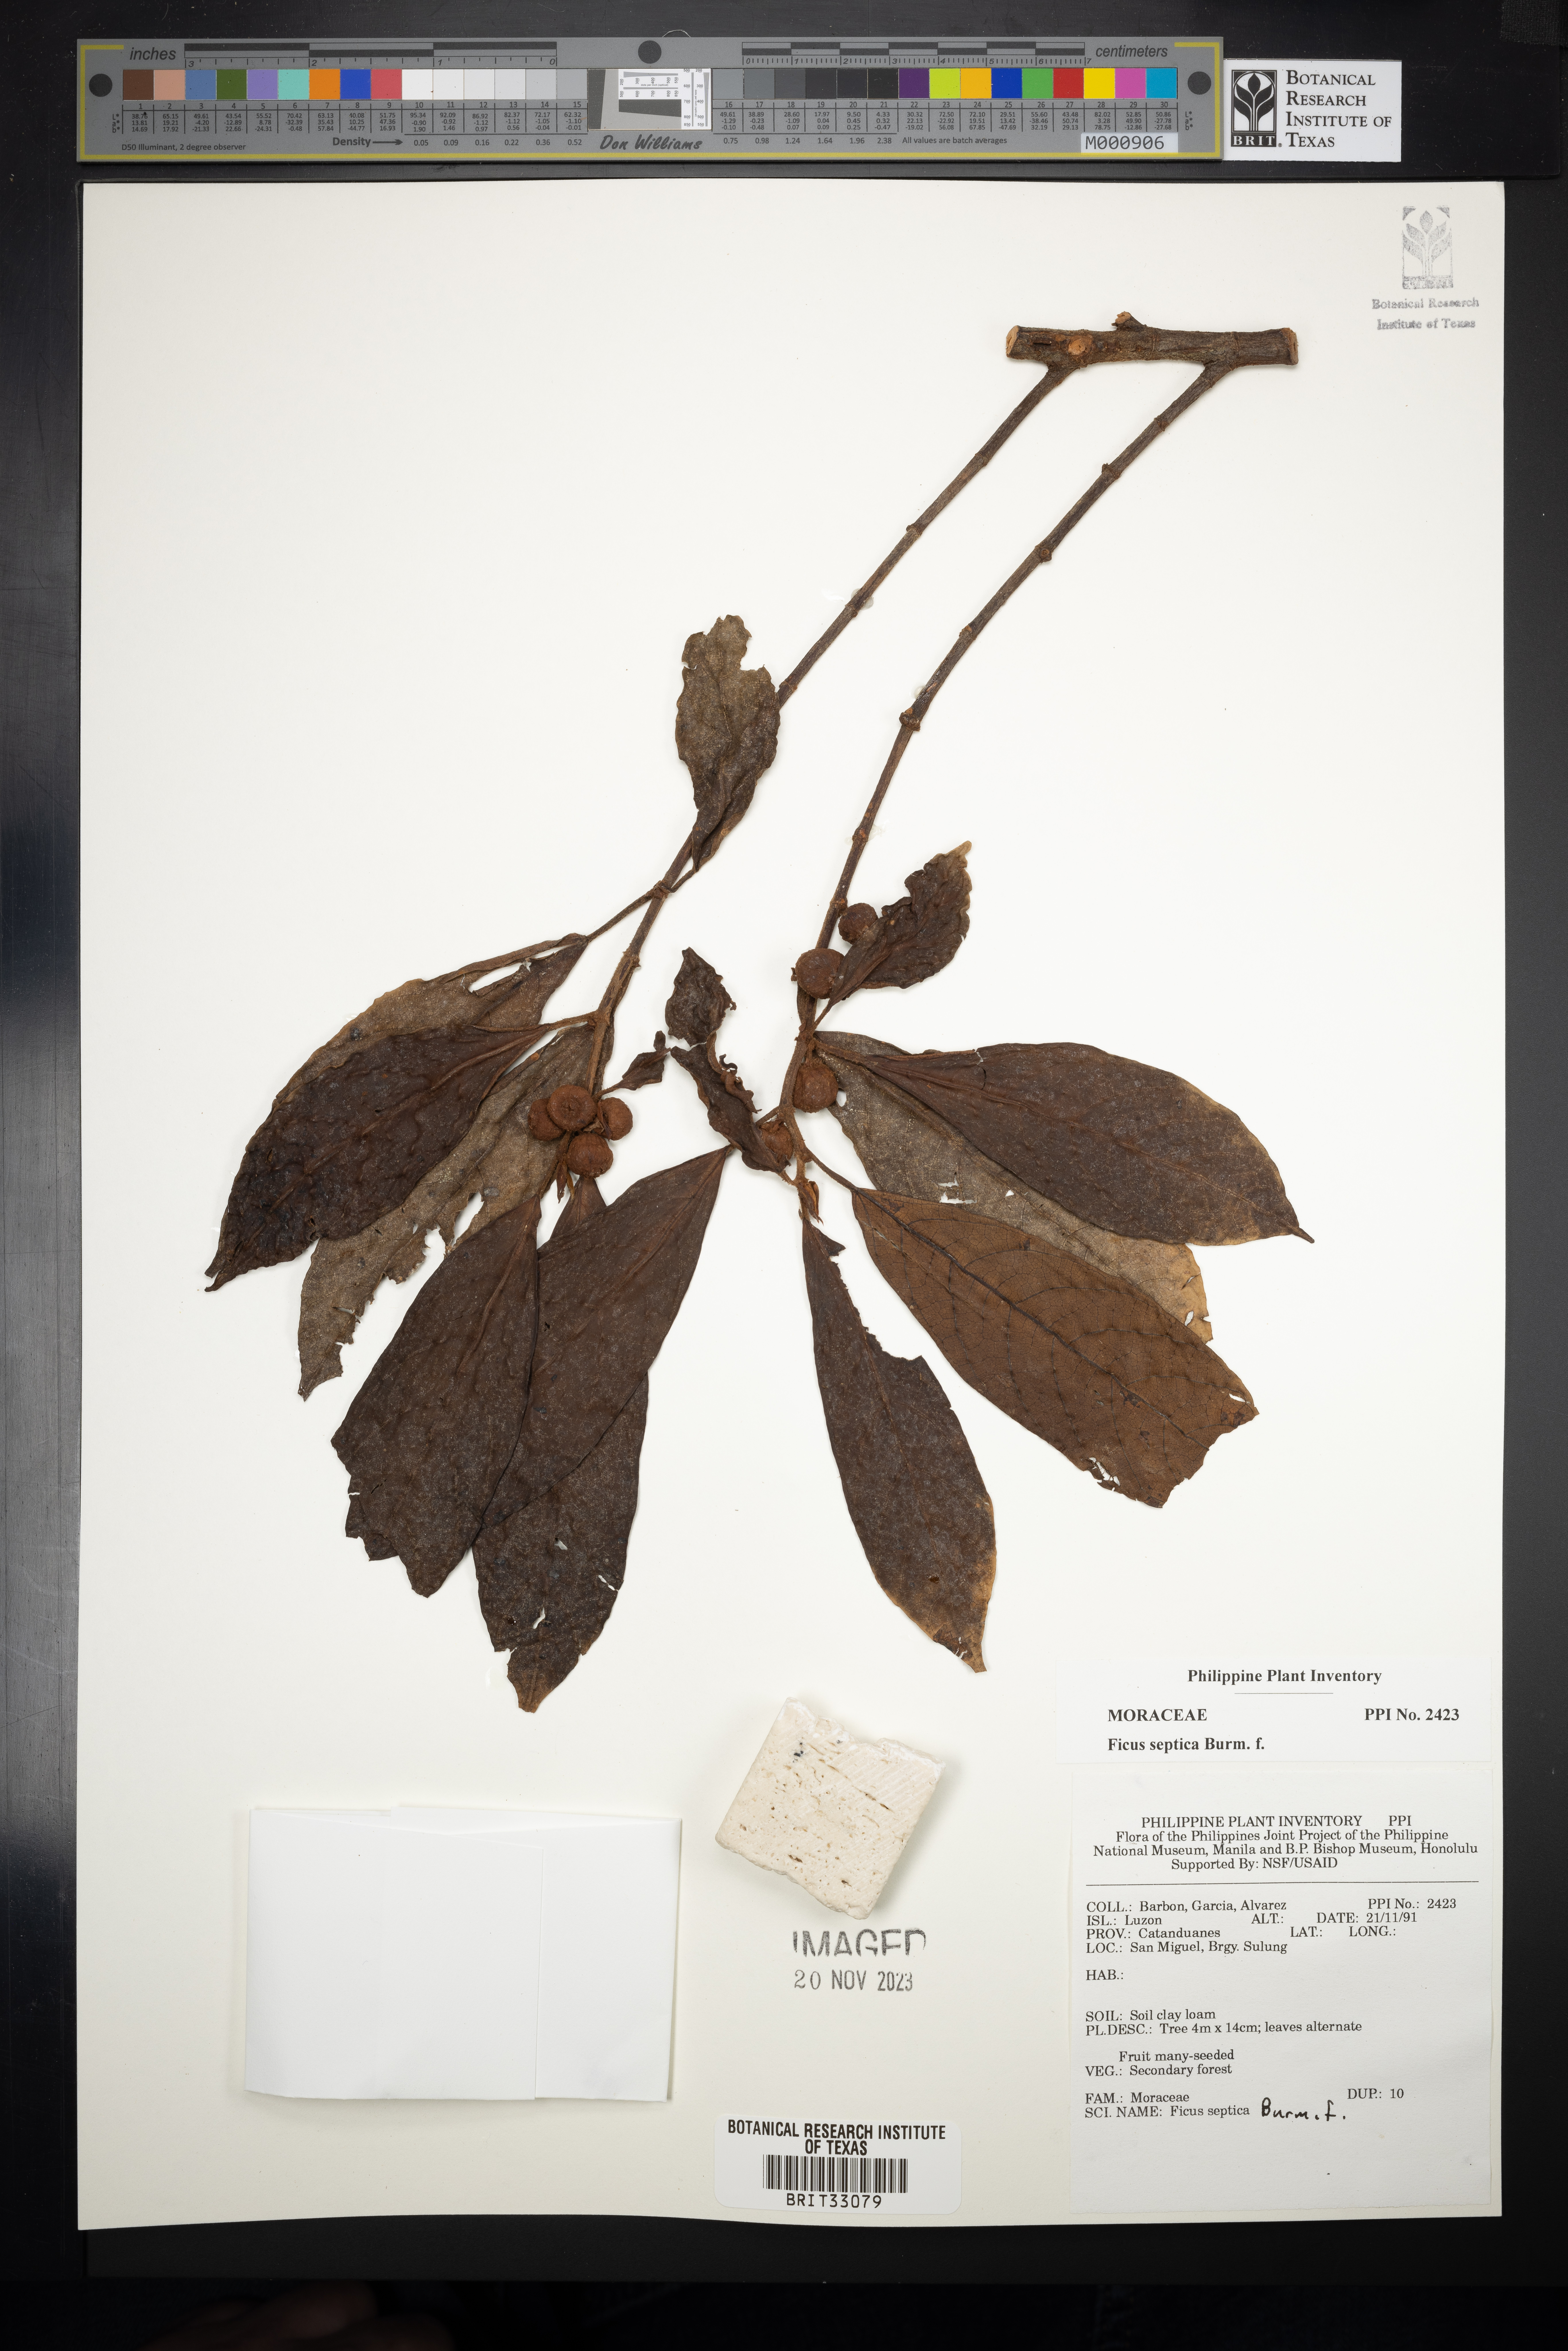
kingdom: Plantae
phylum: Tracheophyta
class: Magnoliopsida
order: Rosales
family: Moraceae
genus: Ficus
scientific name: Ficus septica
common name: Septic fig
